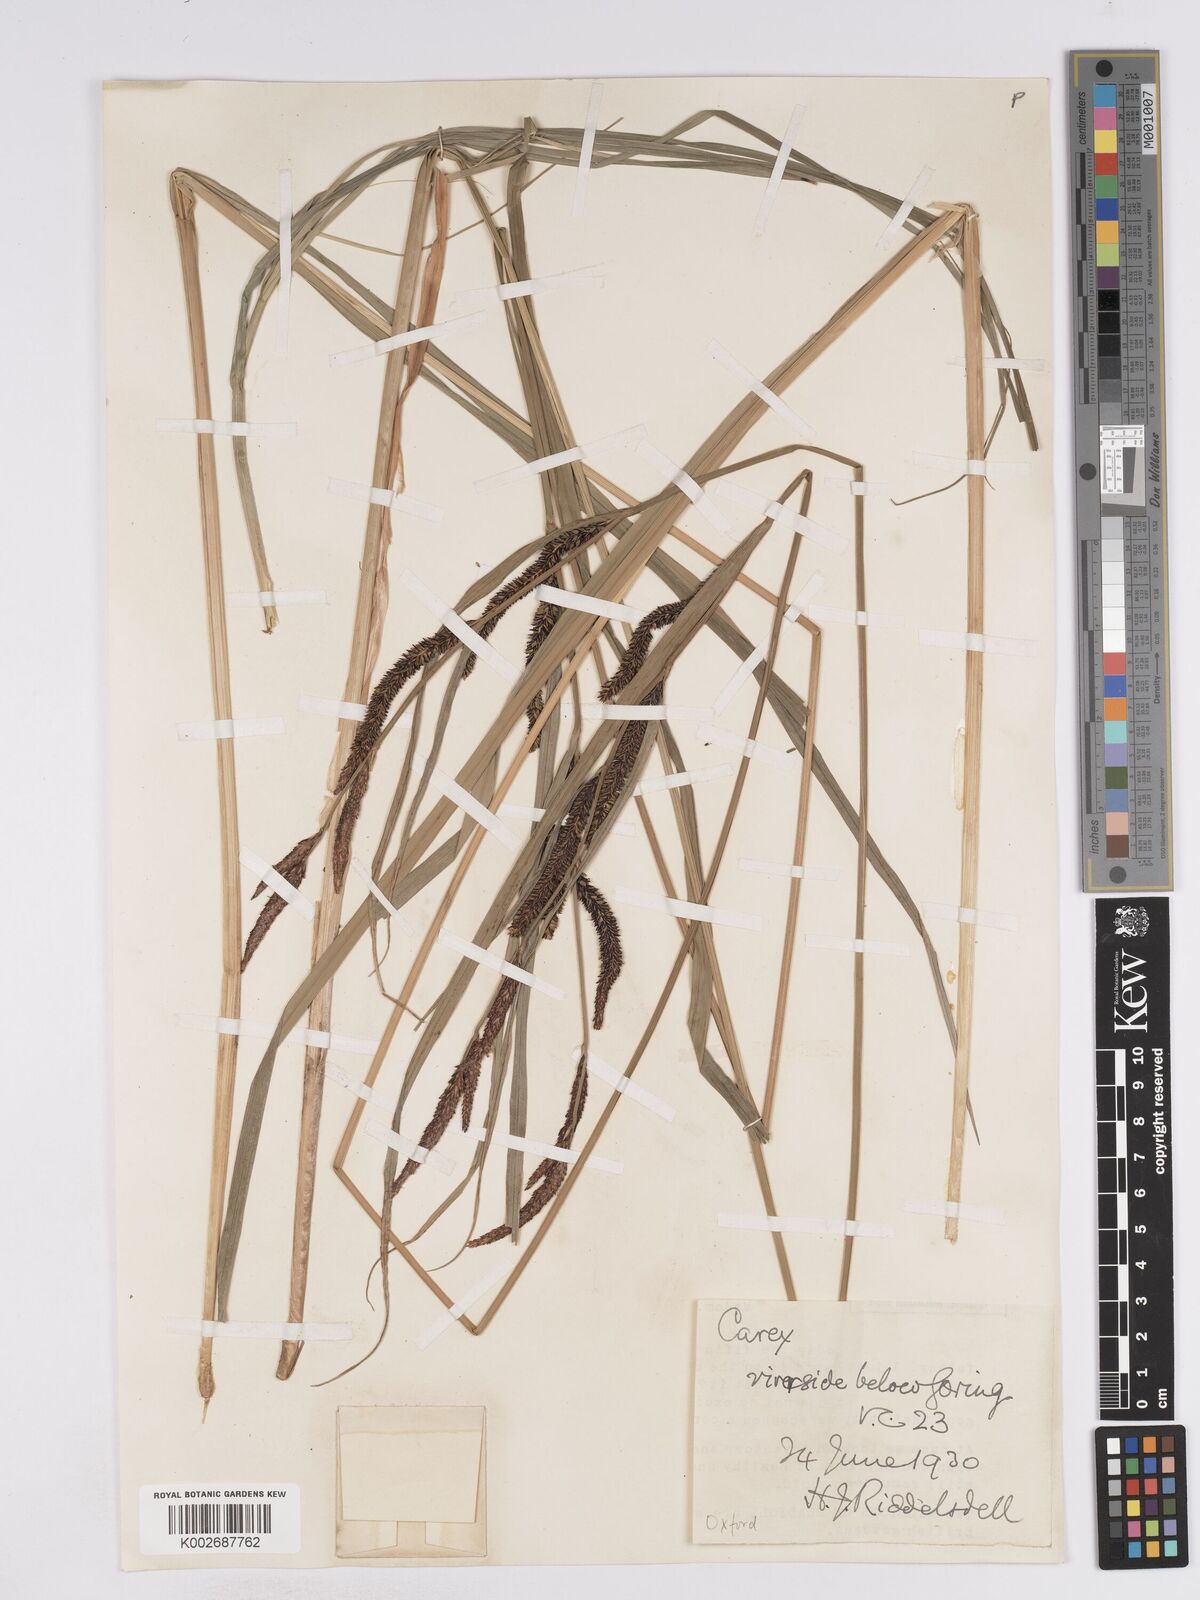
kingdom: Plantae
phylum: Tracheophyta
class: Liliopsida
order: Poales
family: Cyperaceae
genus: Carex
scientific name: Carex acuta
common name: Slender tufted-sedge
